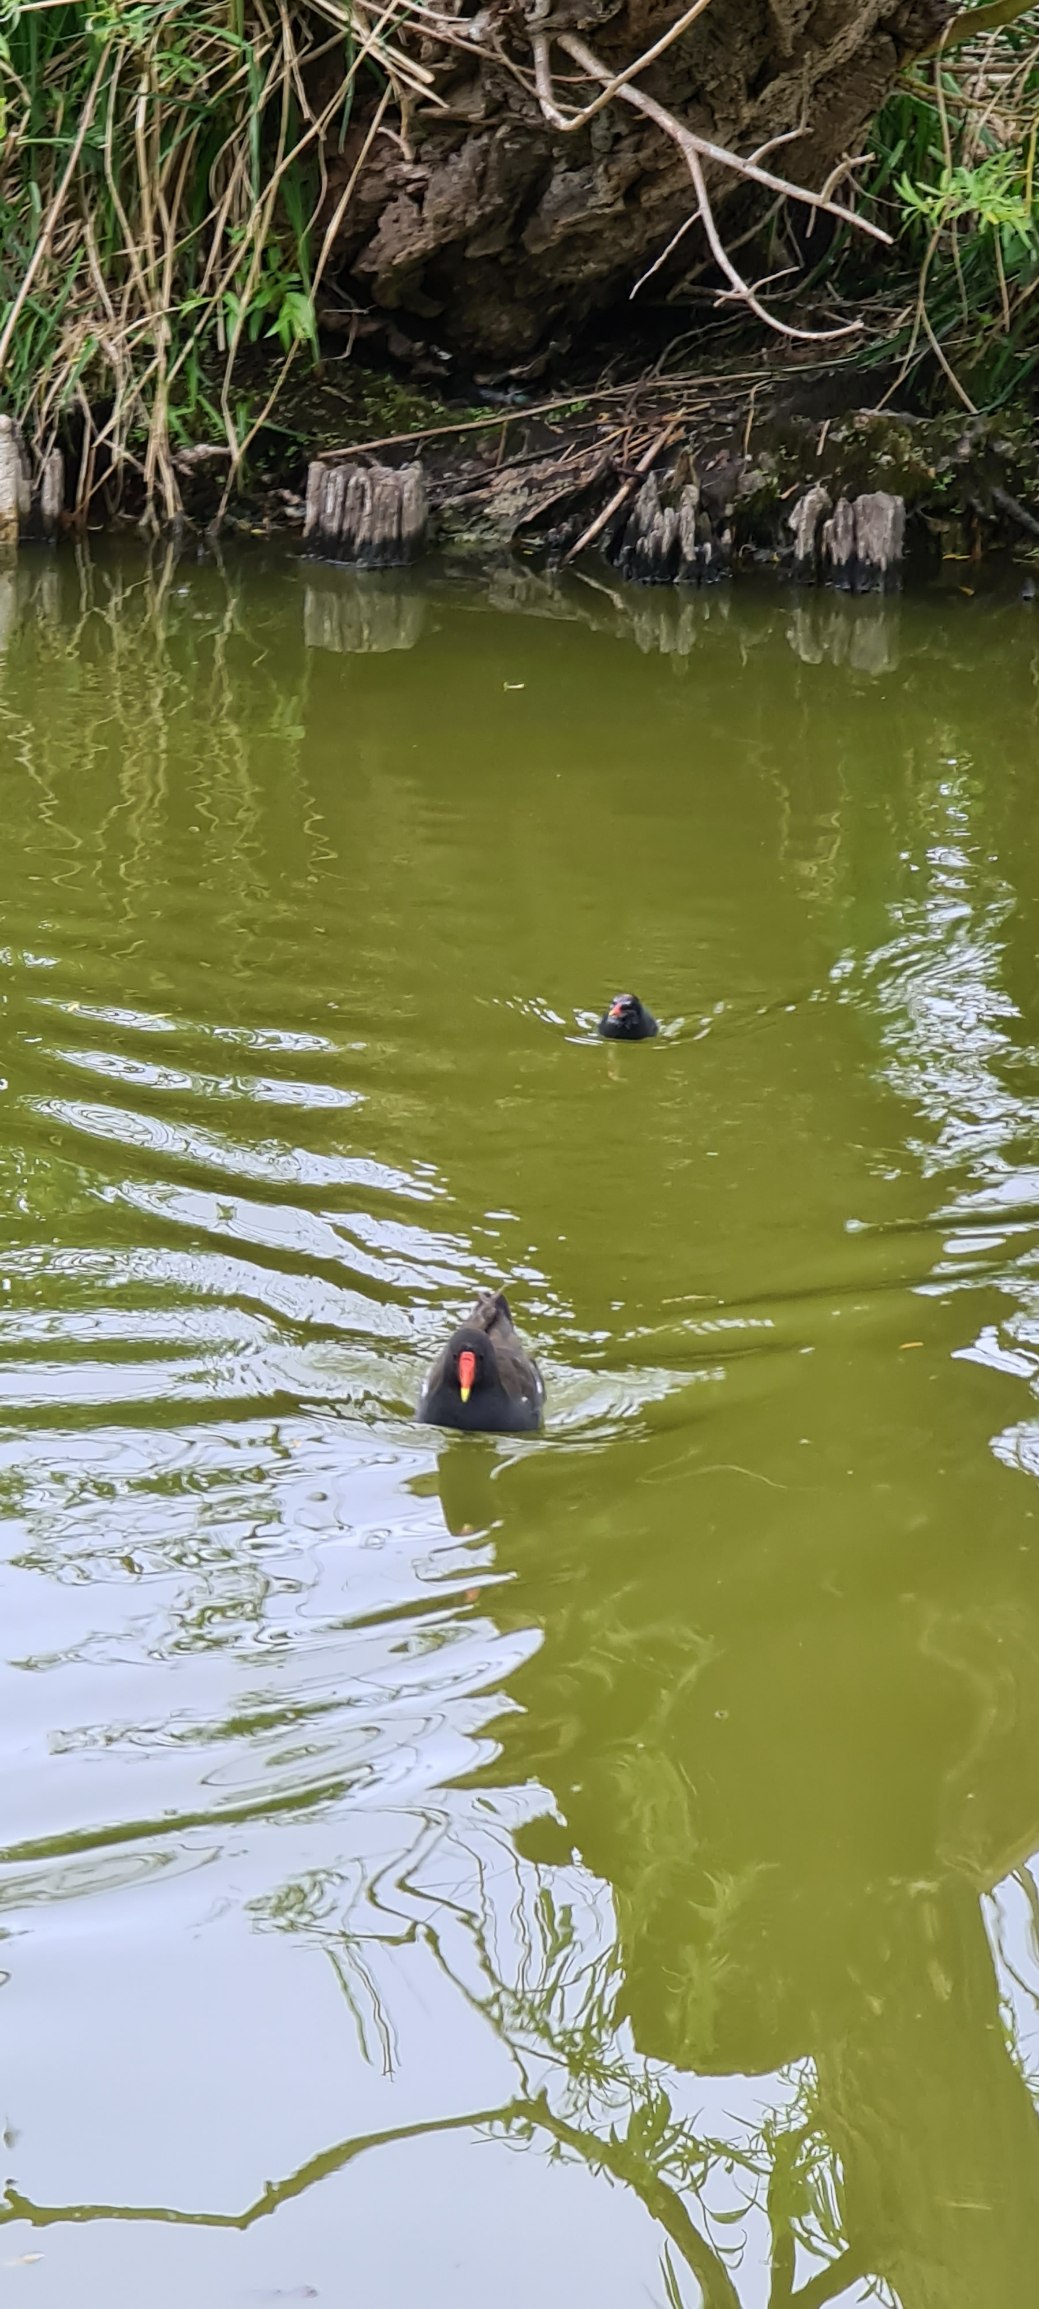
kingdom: Animalia
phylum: Chordata
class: Aves
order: Gruiformes
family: Rallidae
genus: Gallinula
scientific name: Gallinula chloropus
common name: Grønbenet rørhøne
